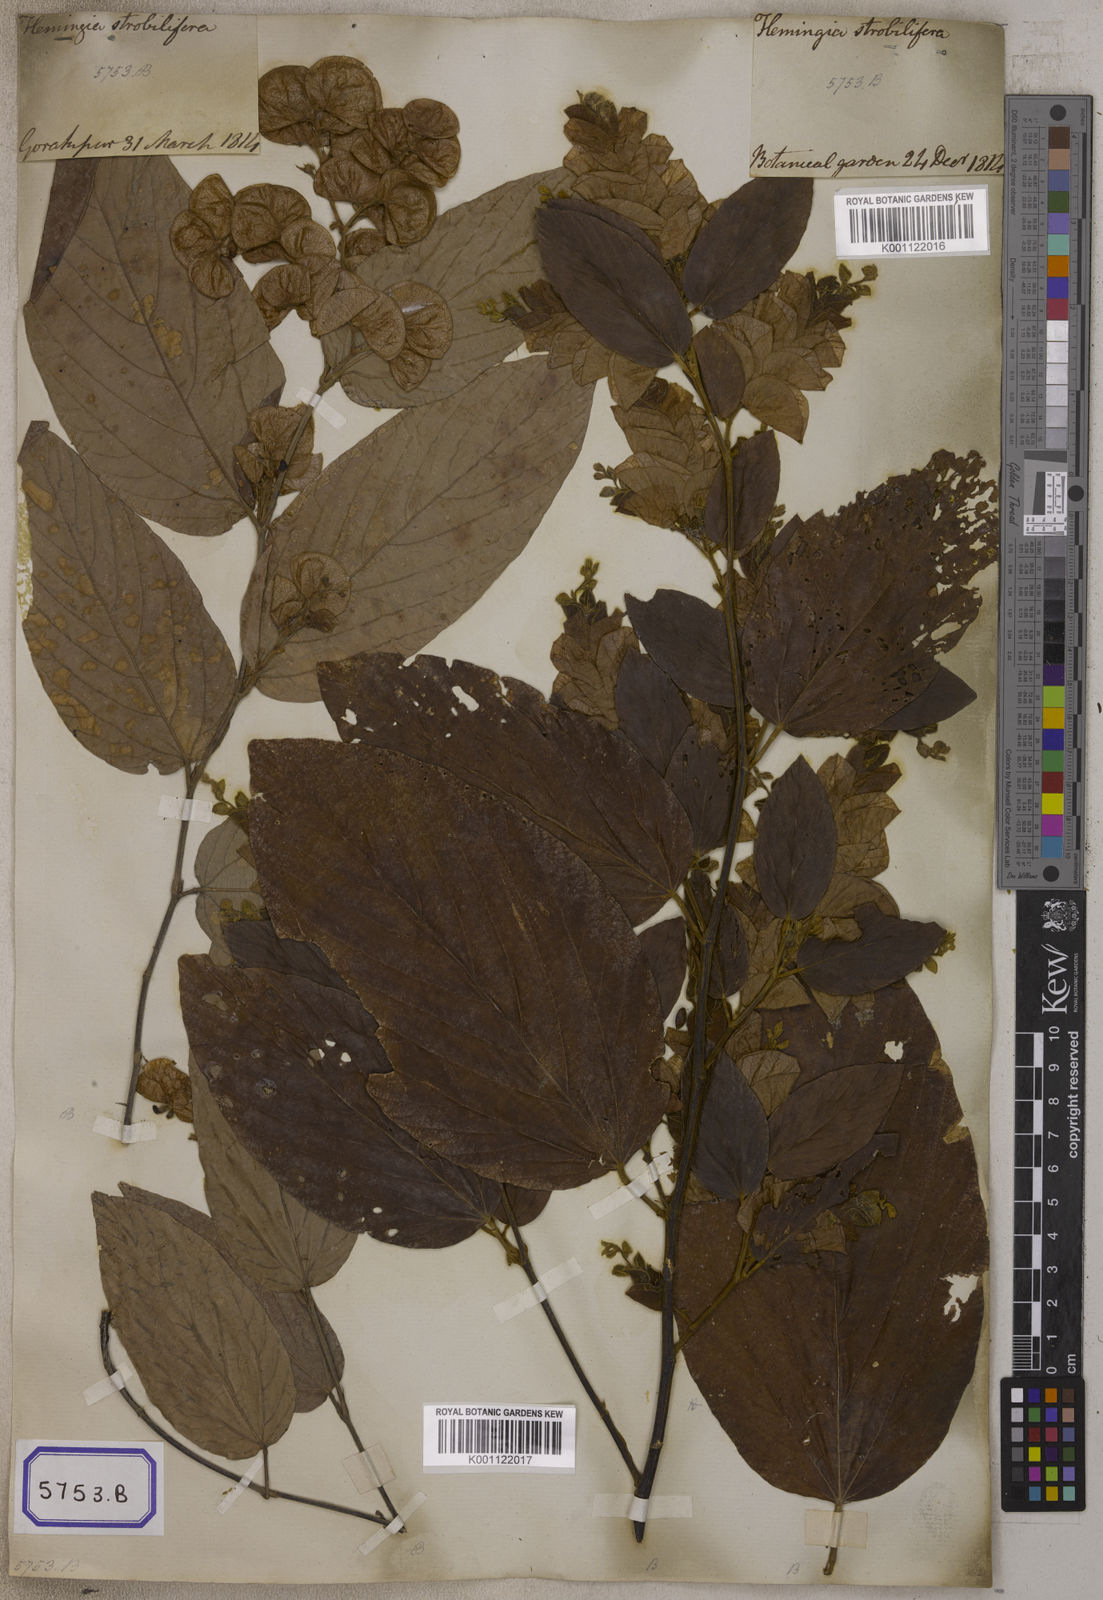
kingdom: Plantae
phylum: Tracheophyta
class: Magnoliopsida
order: Fabales
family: Fabaceae
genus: Flemingia
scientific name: Flemingia strobilifera
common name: Wild hops
